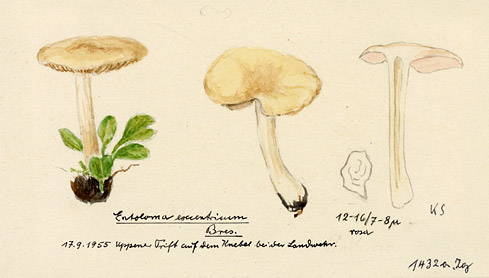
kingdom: Fungi
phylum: Basidiomycota
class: Agaricomycetes
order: Agaricales
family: Entolomataceae
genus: Entoloma
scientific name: Entoloma excentricum
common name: Excentric pinkgill
